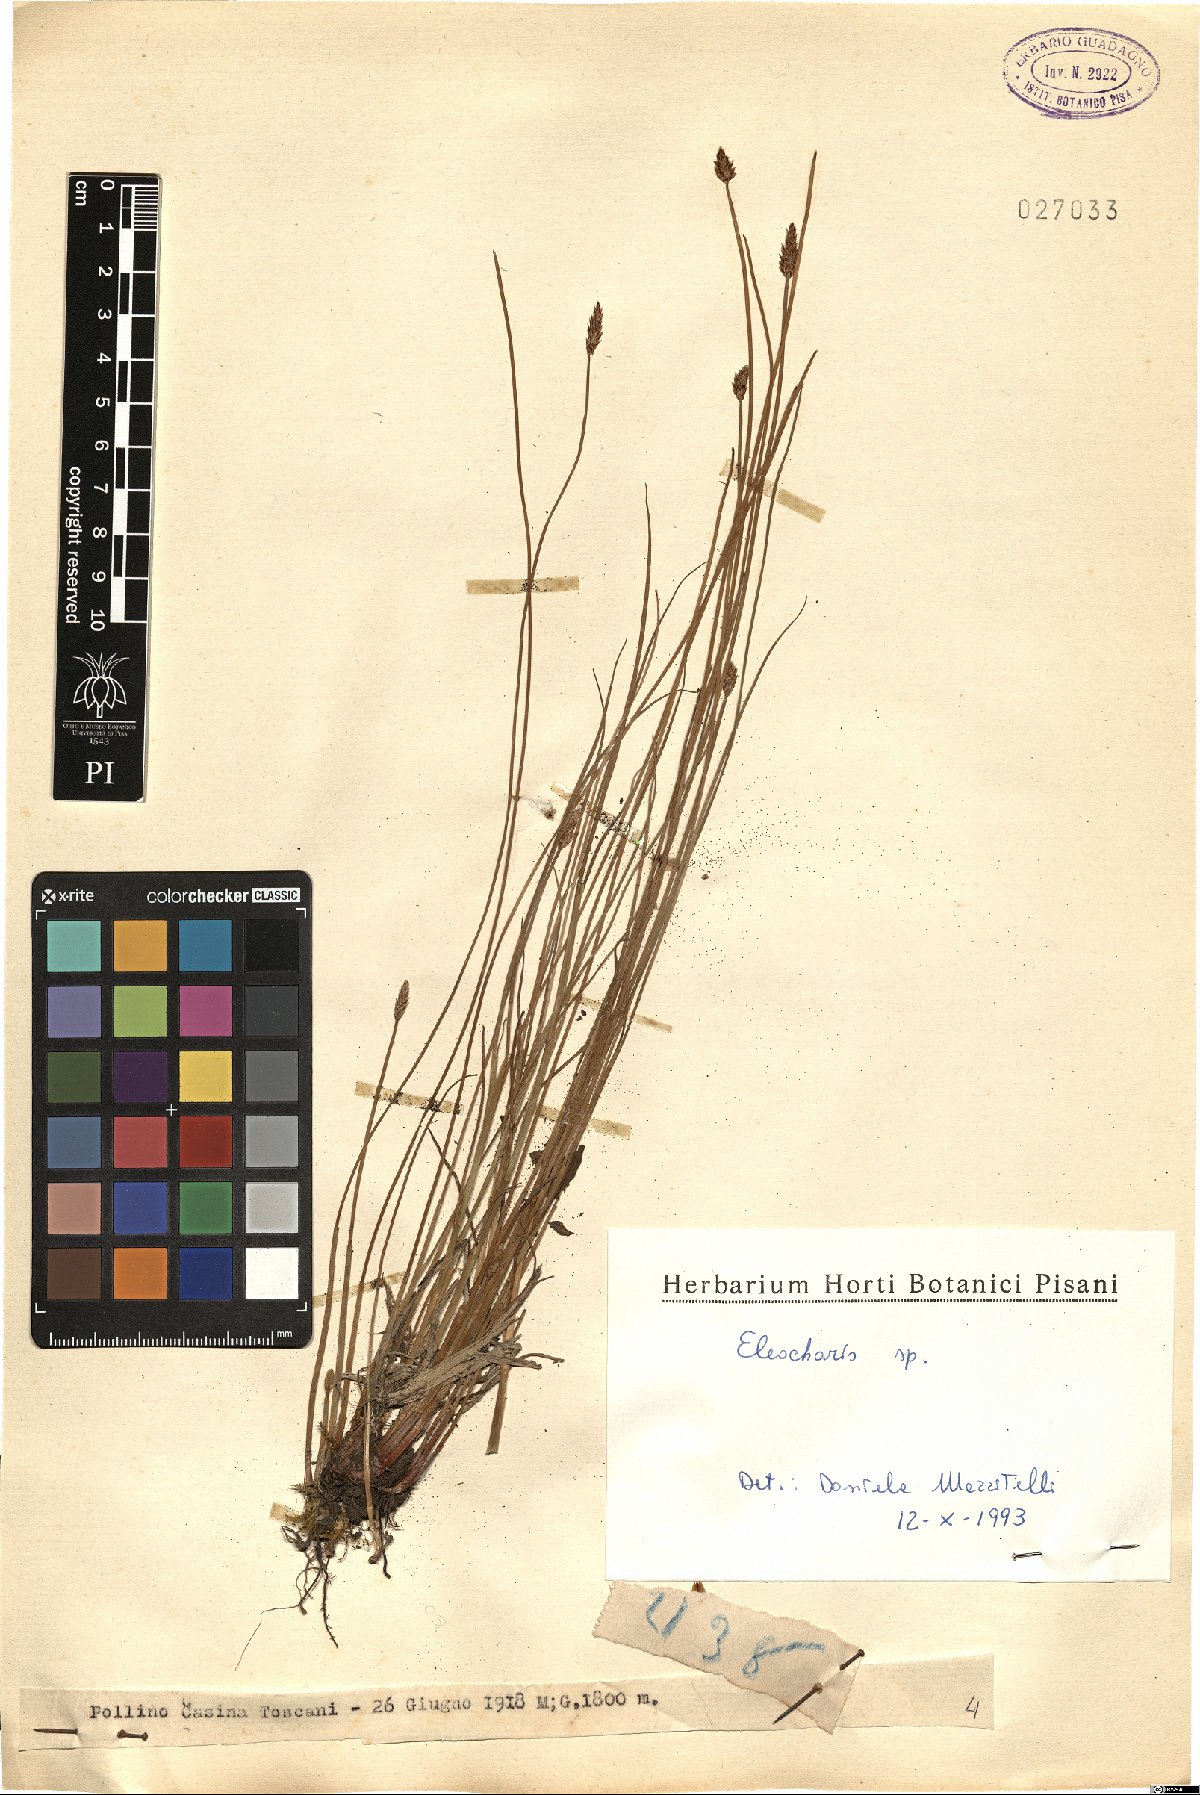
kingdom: Plantae
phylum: Tracheophyta
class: Liliopsida
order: Poales
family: Cyperaceae
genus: Eleocharis
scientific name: Eleocharis
